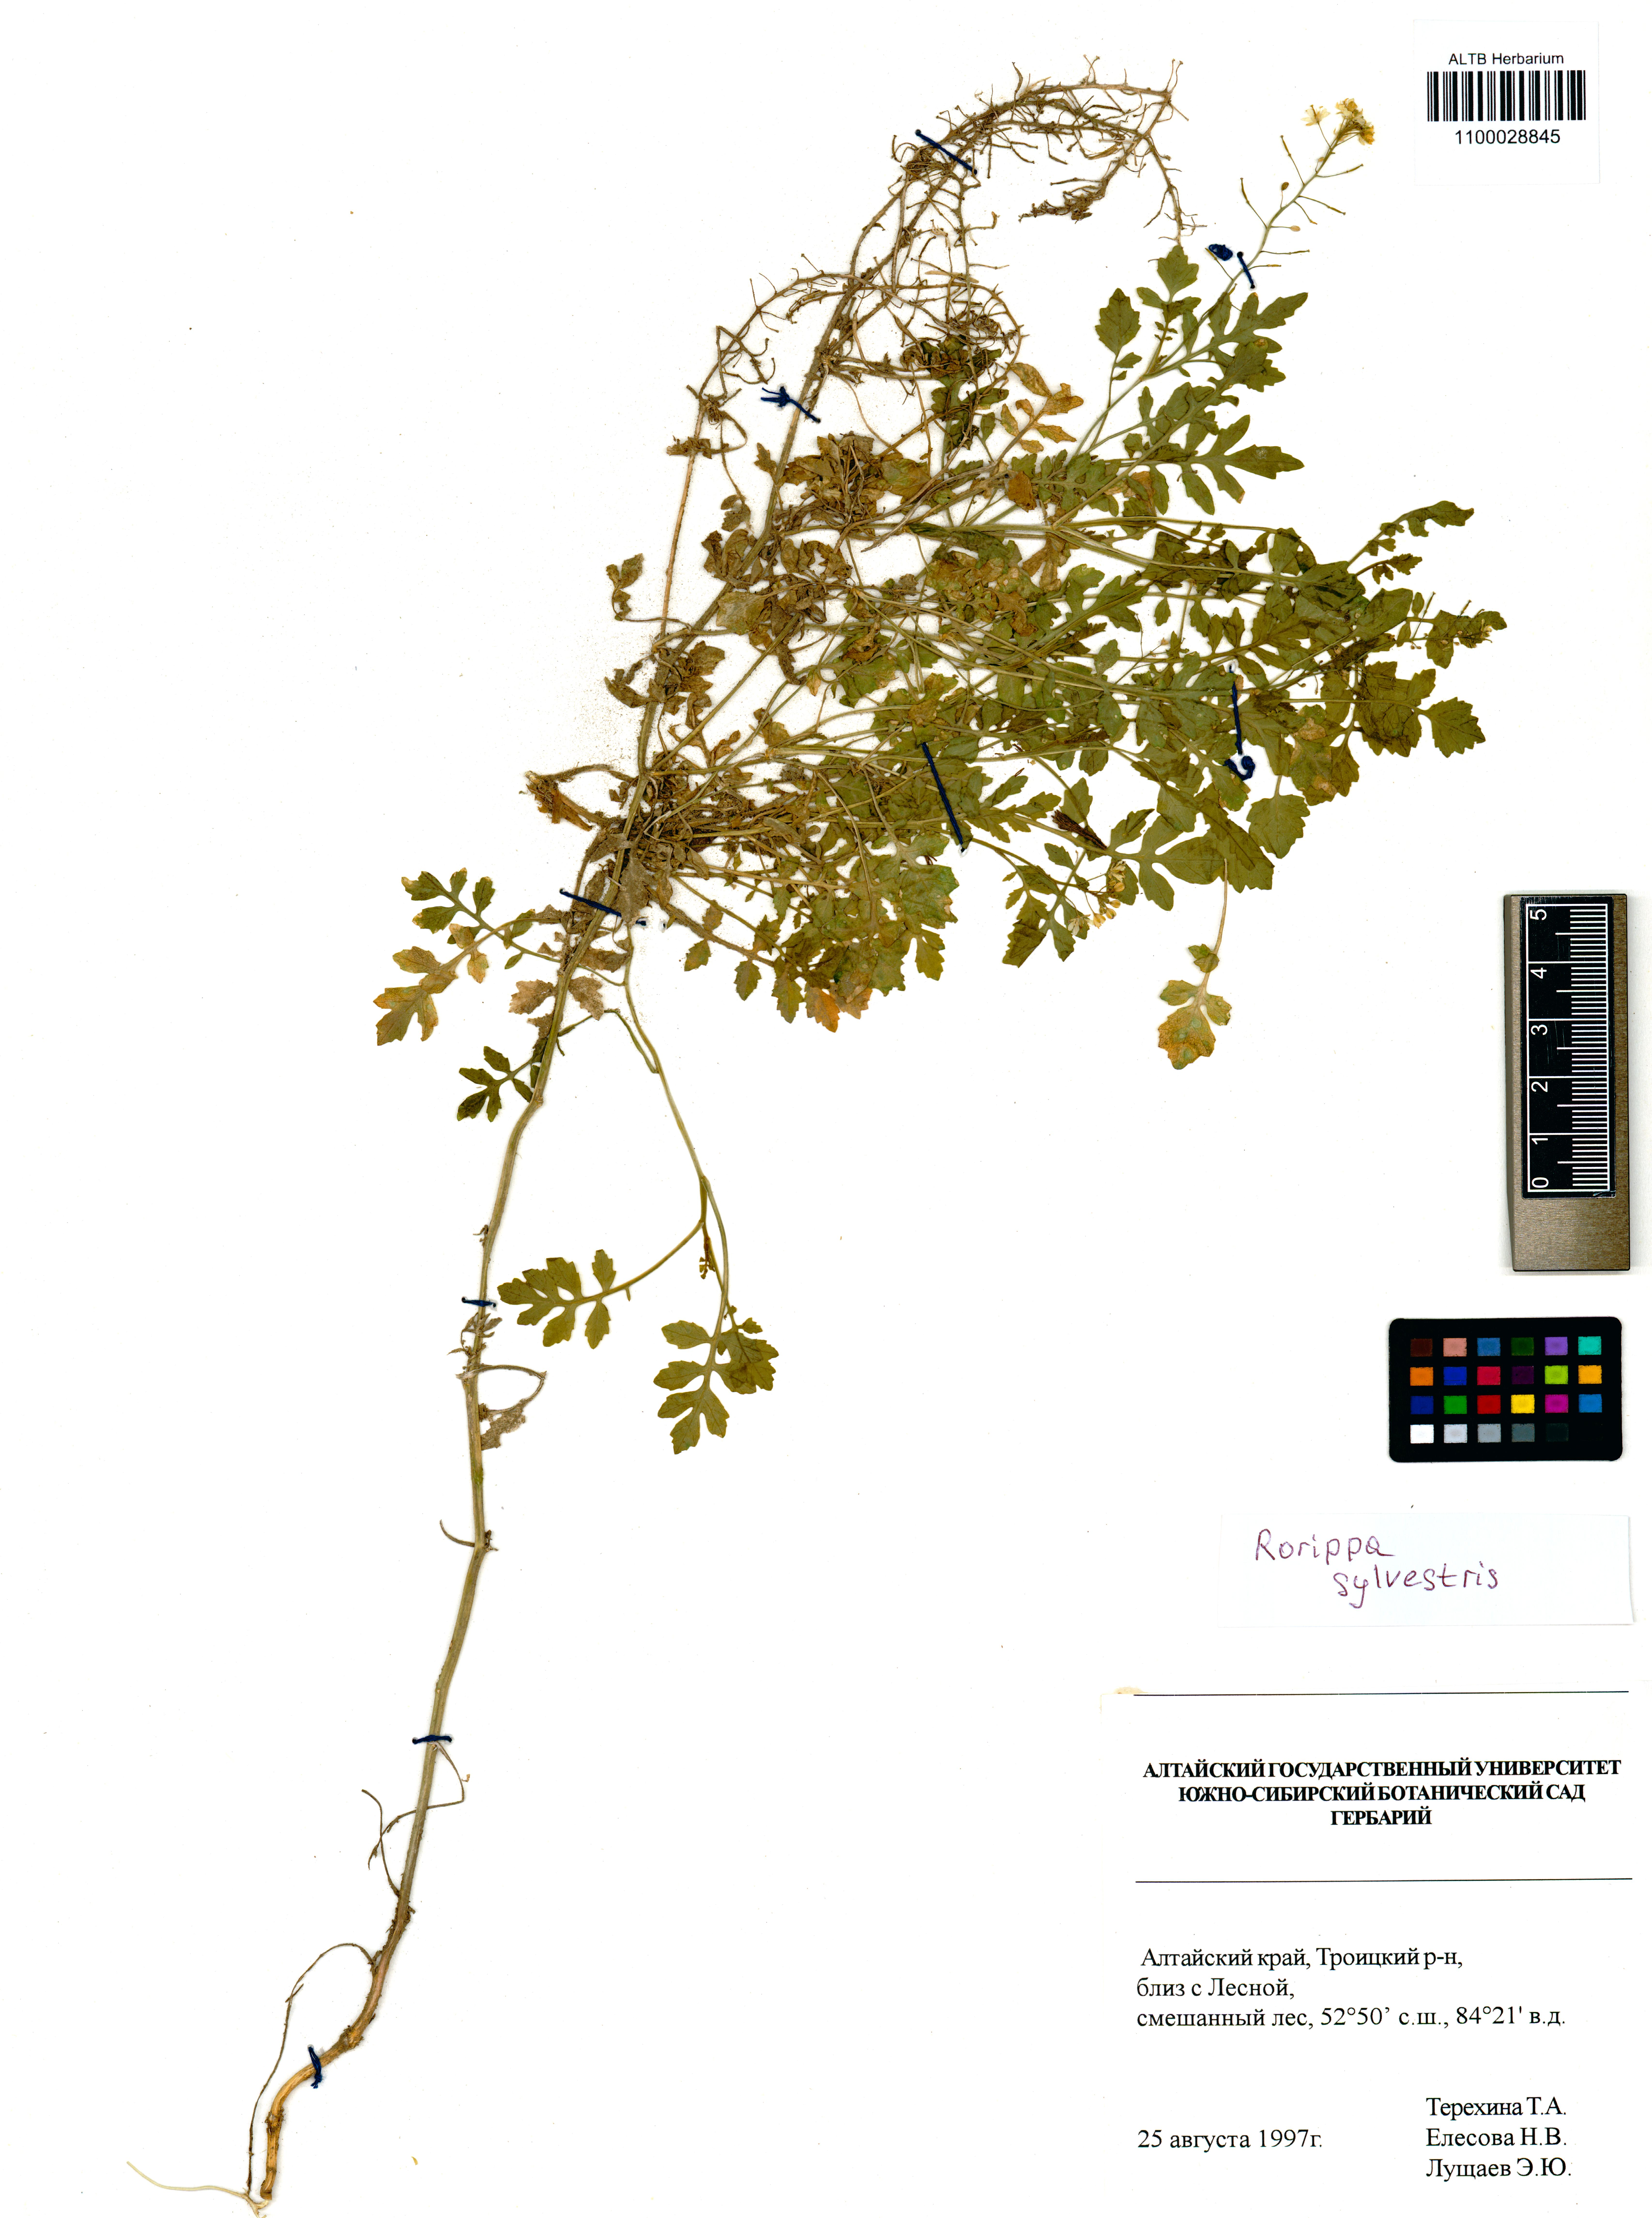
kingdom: Plantae
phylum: Tracheophyta
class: Magnoliopsida
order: Brassicales
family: Brassicaceae
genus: Rorippa
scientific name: Rorippa sylvestris
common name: Creeping yellowcress
